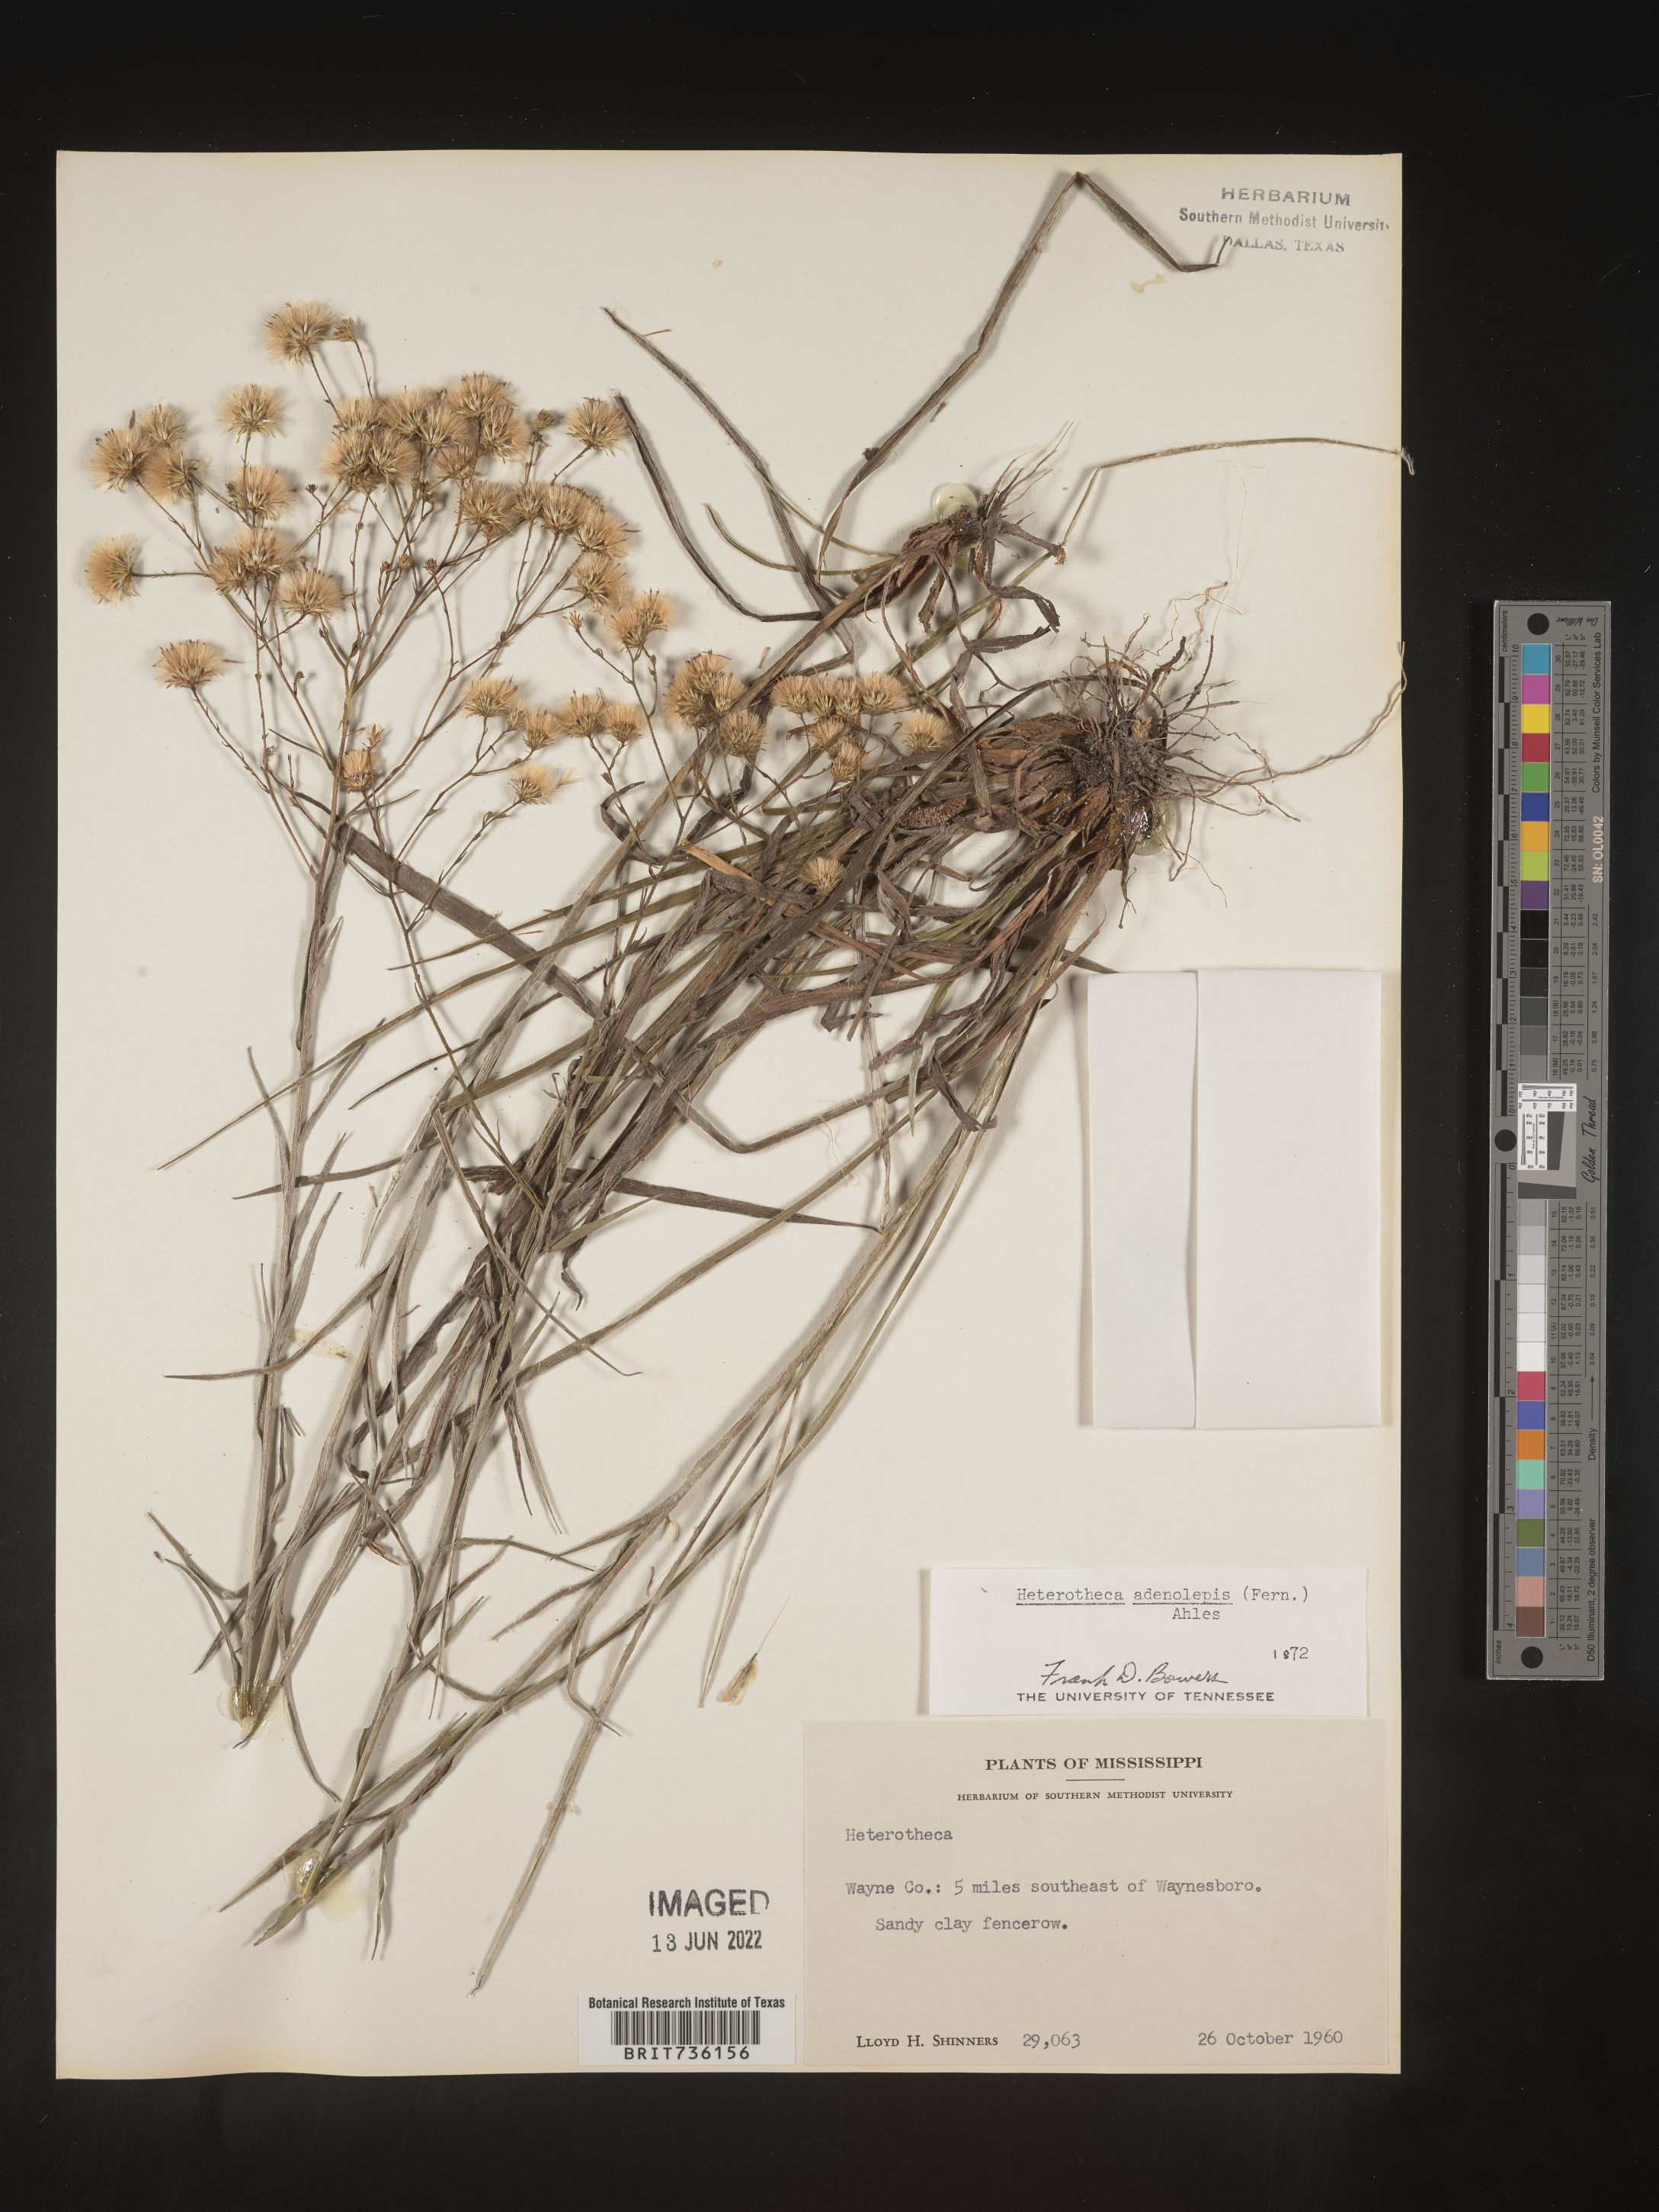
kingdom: Plantae
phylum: Tracheophyta
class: Magnoliopsida
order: Asterales
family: Asteraceae
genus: Pityopsis
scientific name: Pityopsis aspera
